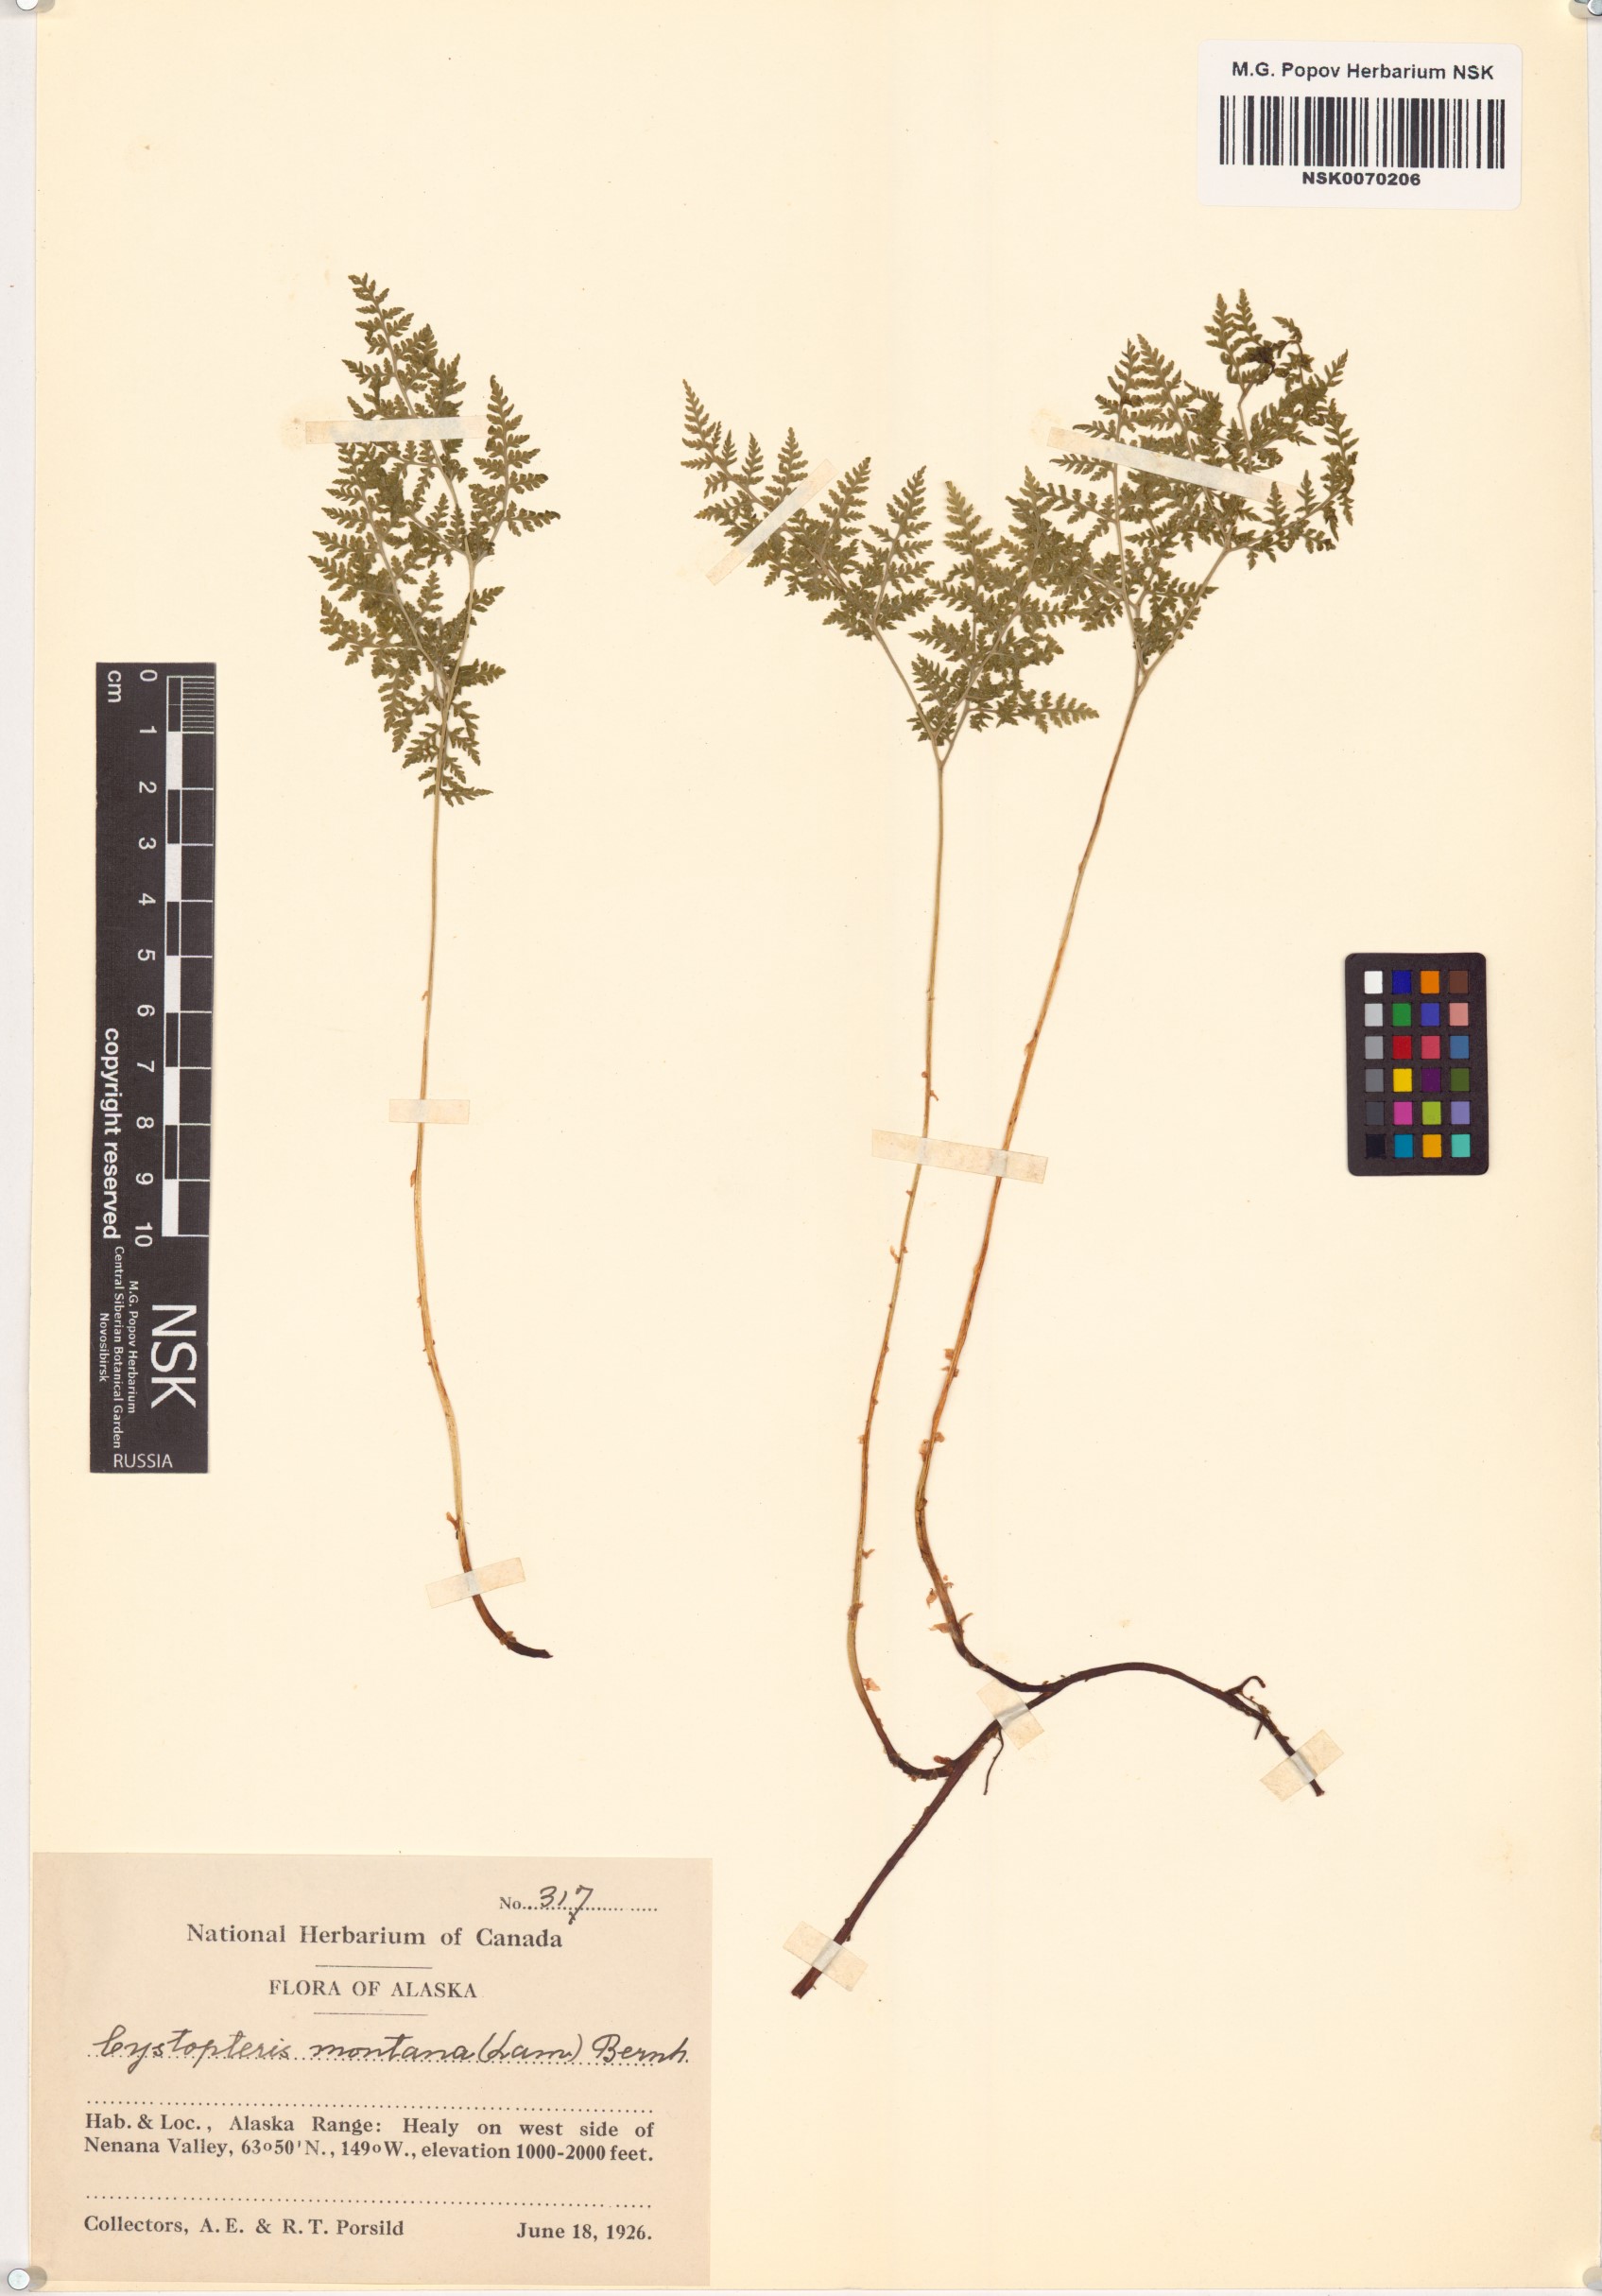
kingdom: Plantae
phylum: Tracheophyta
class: Polypodiopsida
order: Polypodiales
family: Cystopteridaceae
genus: Cystopteris
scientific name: Cystopteris montana
